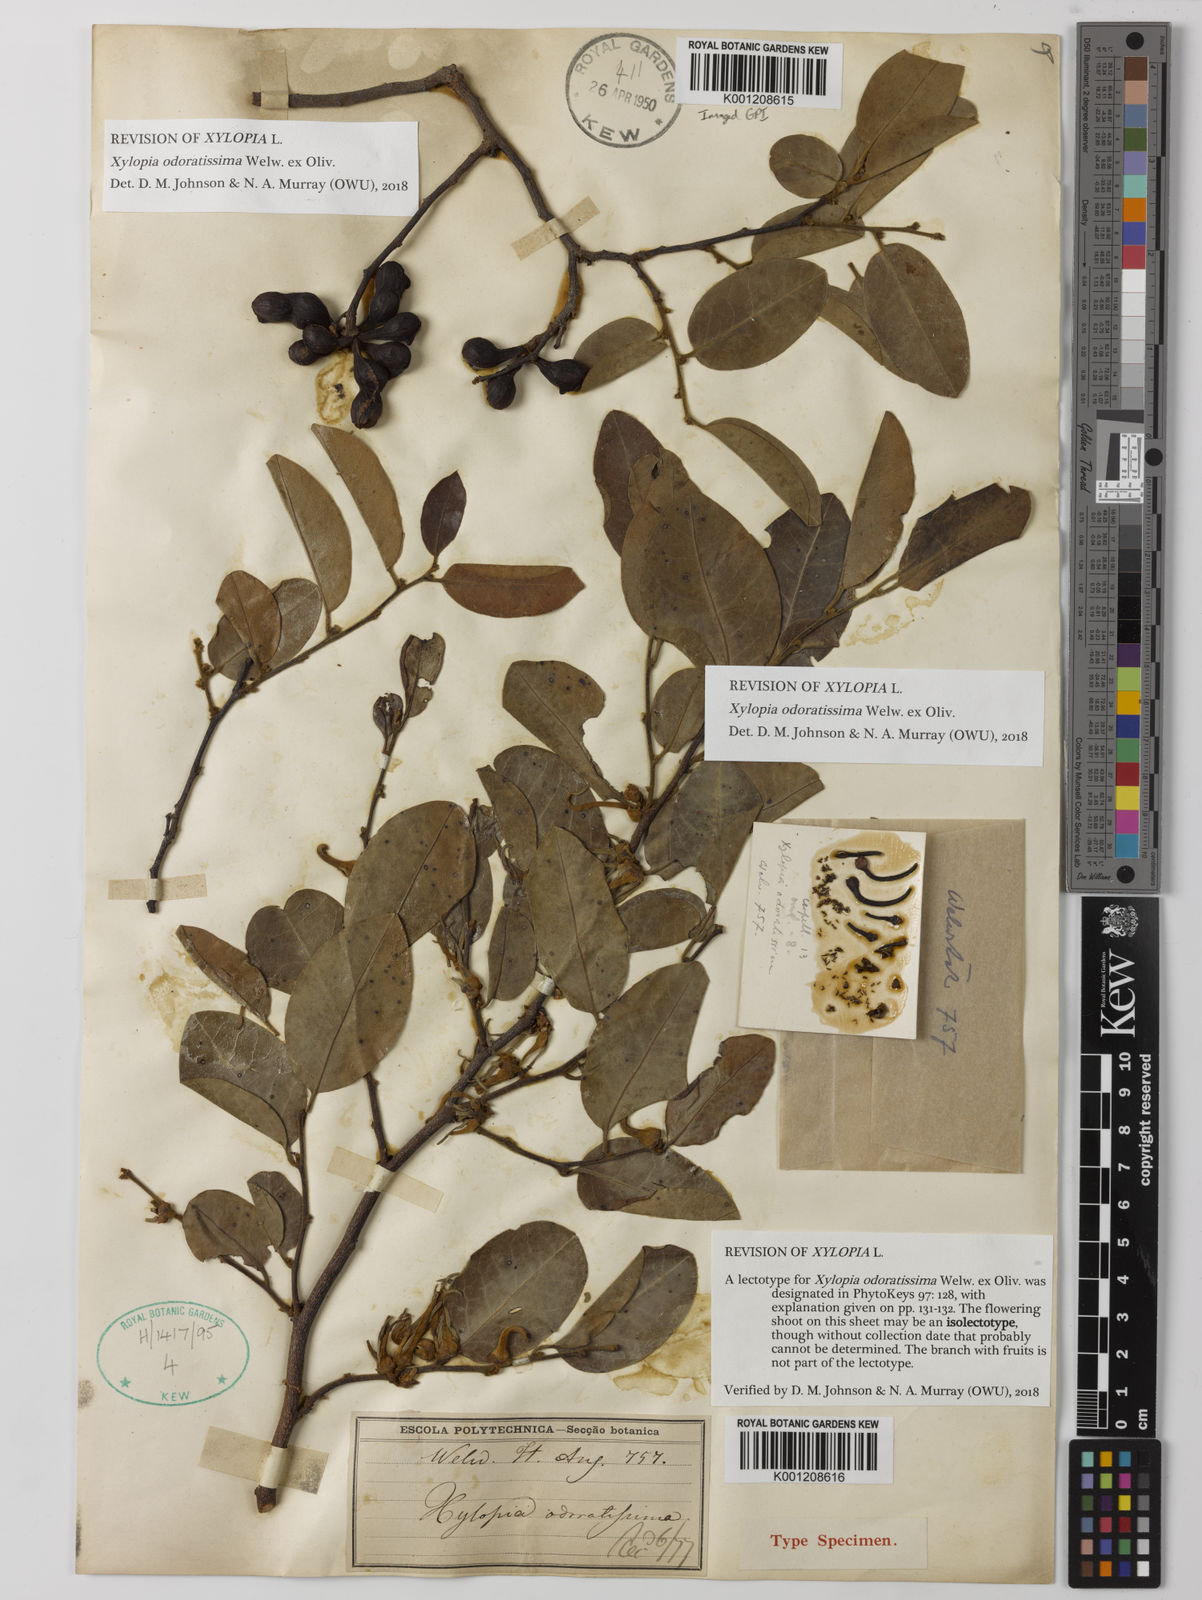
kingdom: Plantae
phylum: Tracheophyta
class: Magnoliopsida
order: Magnoliales
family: Annonaceae
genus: Xylopia
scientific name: Xylopia odoratissima
